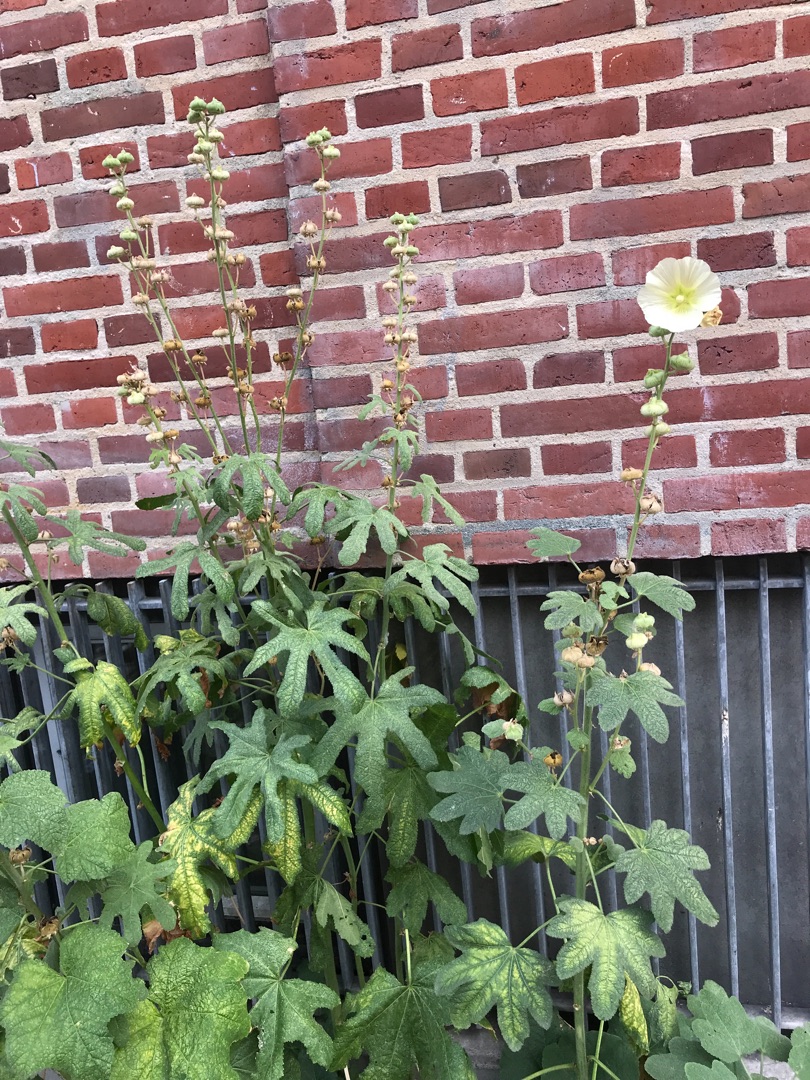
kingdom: Plantae
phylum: Tracheophyta
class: Magnoliopsida
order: Malvales
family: Malvaceae
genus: Alcea
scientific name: Alcea rosea
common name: Have-stokrose
